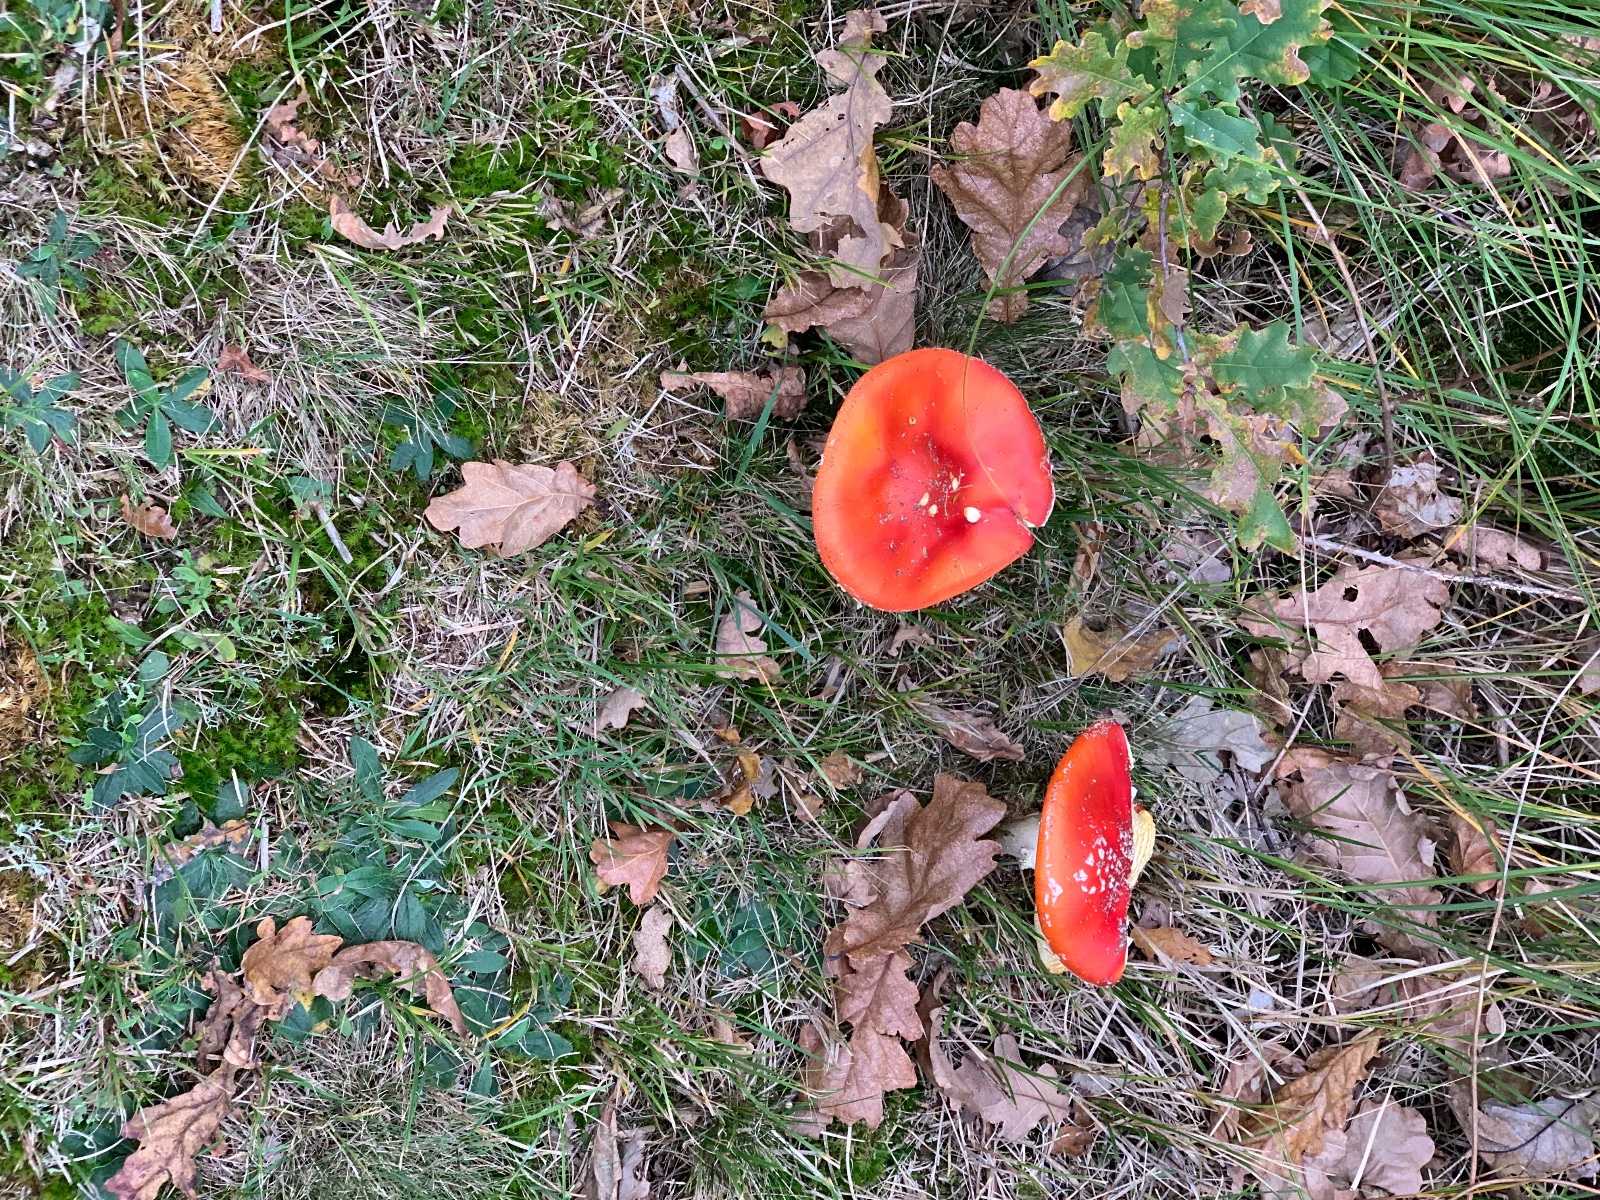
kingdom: Fungi
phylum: Basidiomycota
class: Agaricomycetes
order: Agaricales
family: Amanitaceae
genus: Amanita
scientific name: Amanita muscaria
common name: rød fluesvamp
